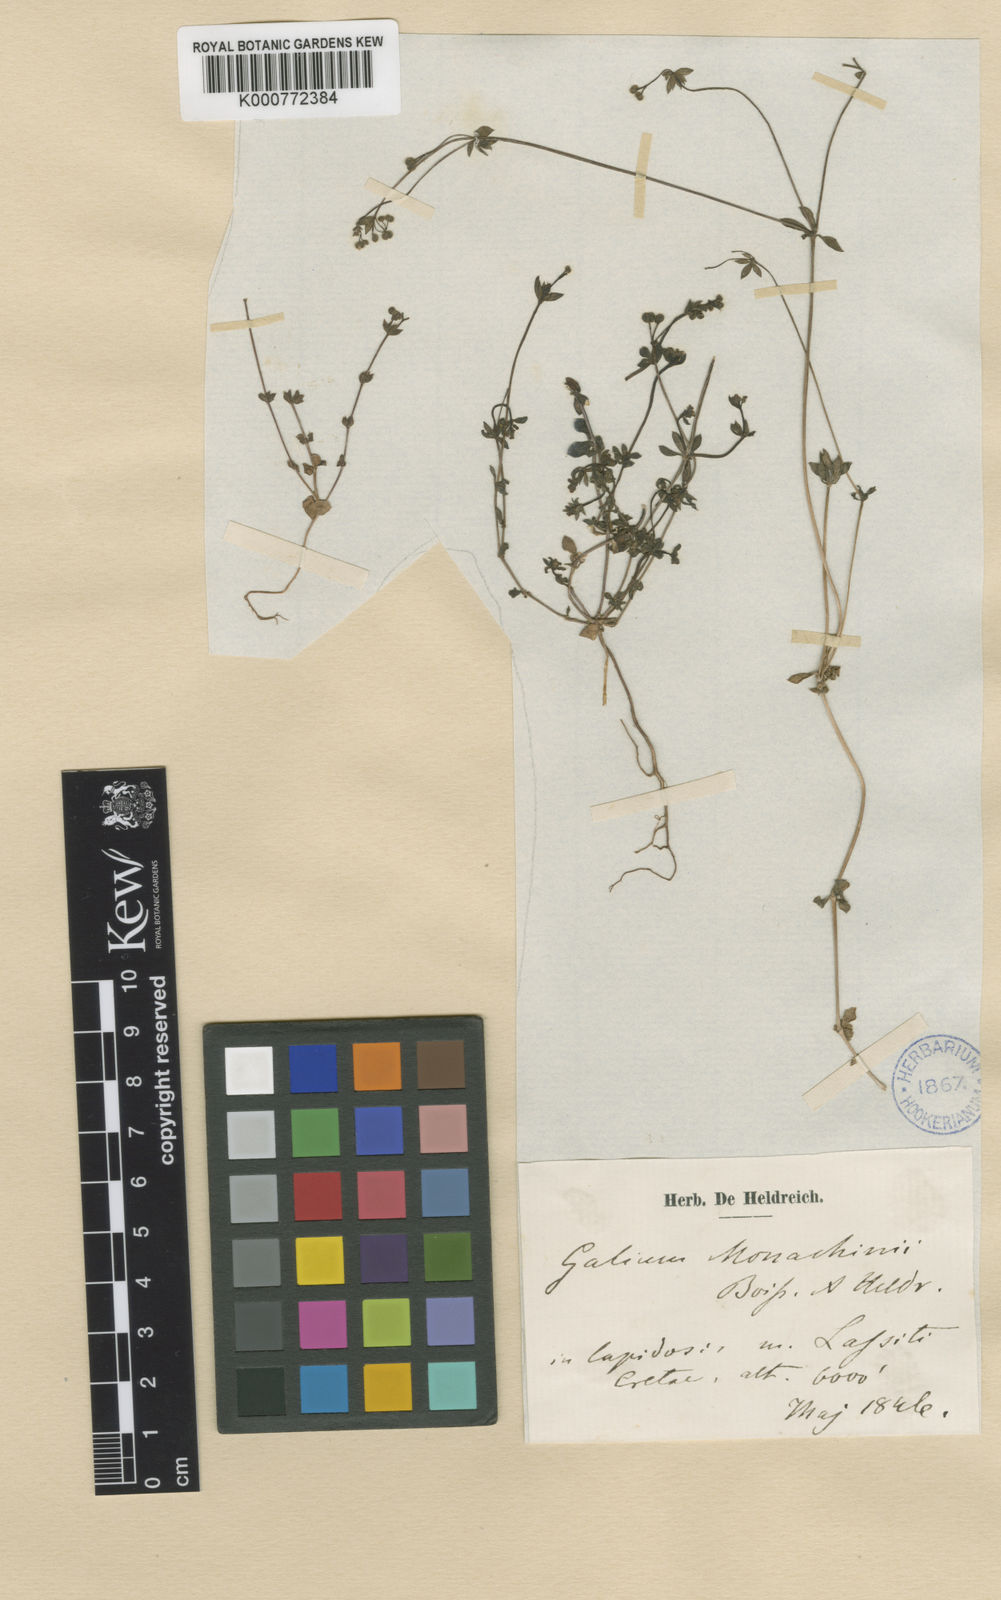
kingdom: Plantae
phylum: Tracheophyta
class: Magnoliopsida
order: Gentianales
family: Rubiaceae
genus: Galium
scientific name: Galium monachinii
